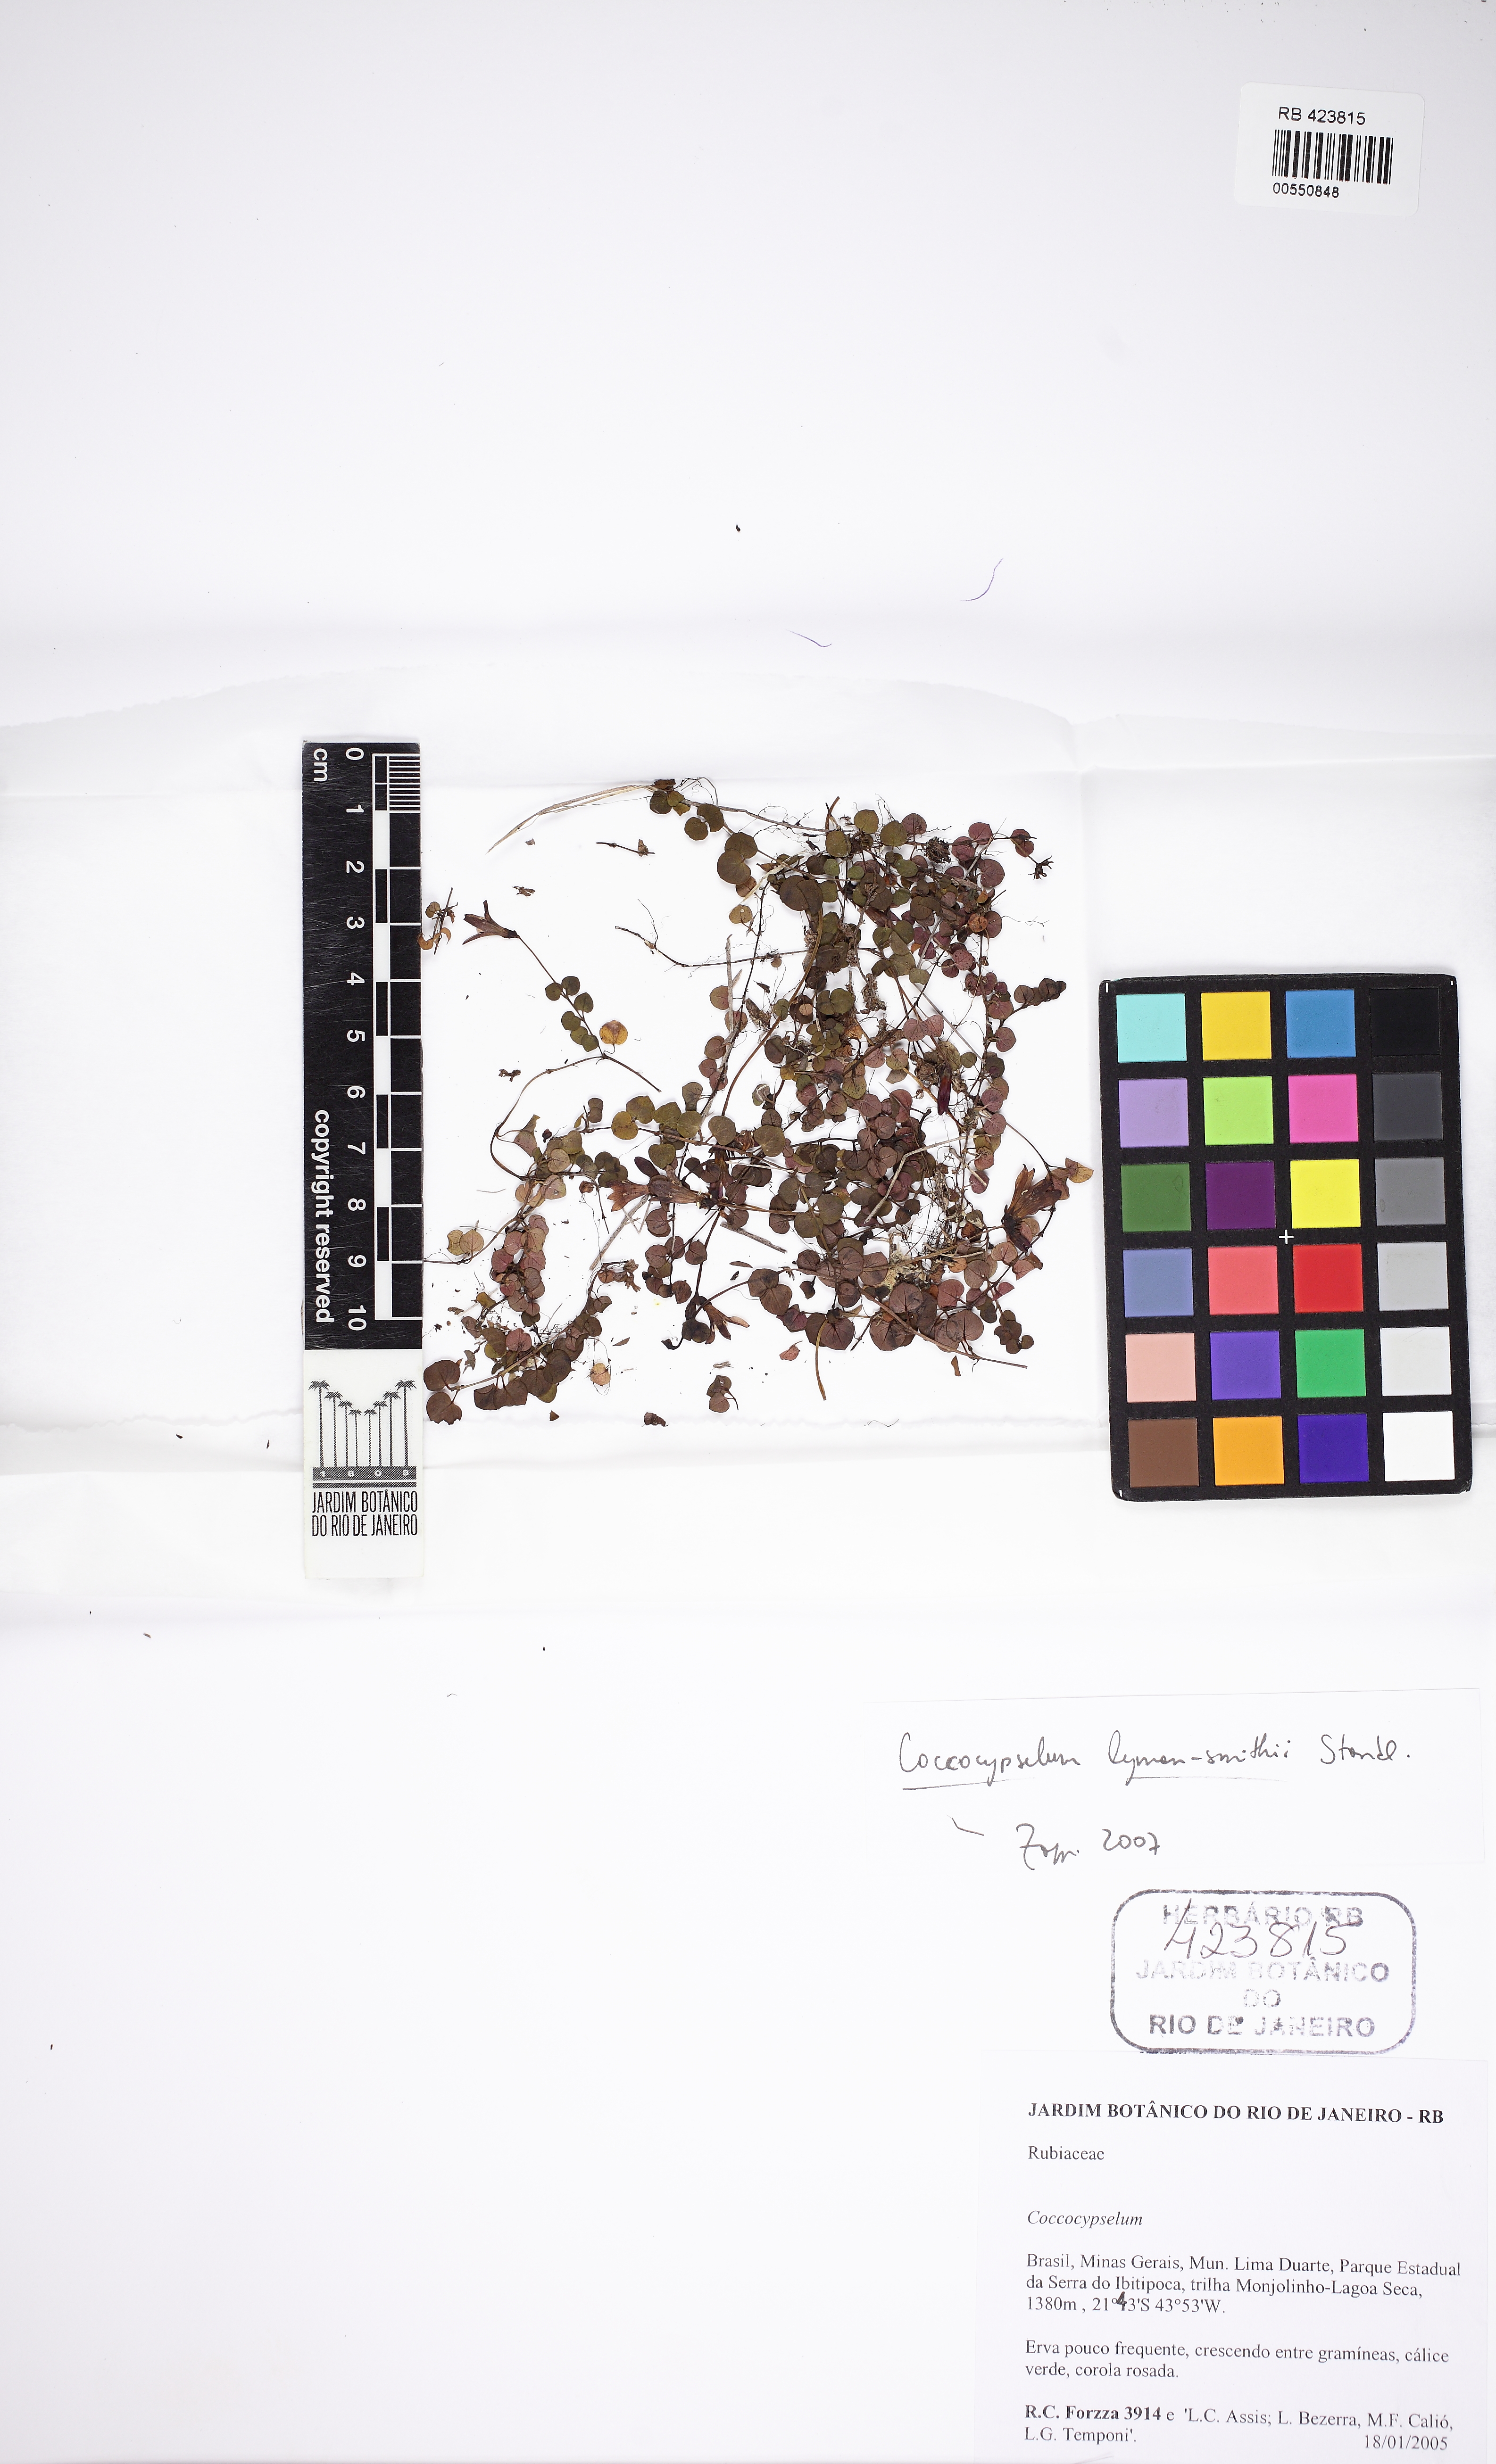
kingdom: Plantae
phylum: Tracheophyta
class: Magnoliopsida
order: Gentianales
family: Rubiaceae
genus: Coccocypselum
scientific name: Coccocypselum lymansmithii
